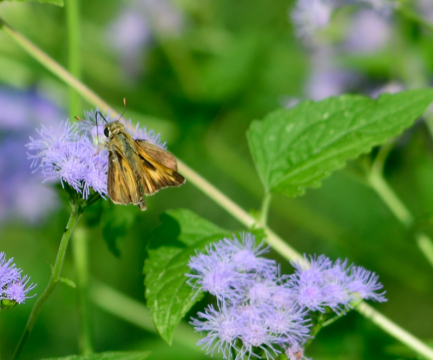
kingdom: Animalia
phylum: Arthropoda
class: Insecta
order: Lepidoptera
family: Hesperiidae
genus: Polites
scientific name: Polites
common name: Long Dash Skipper
